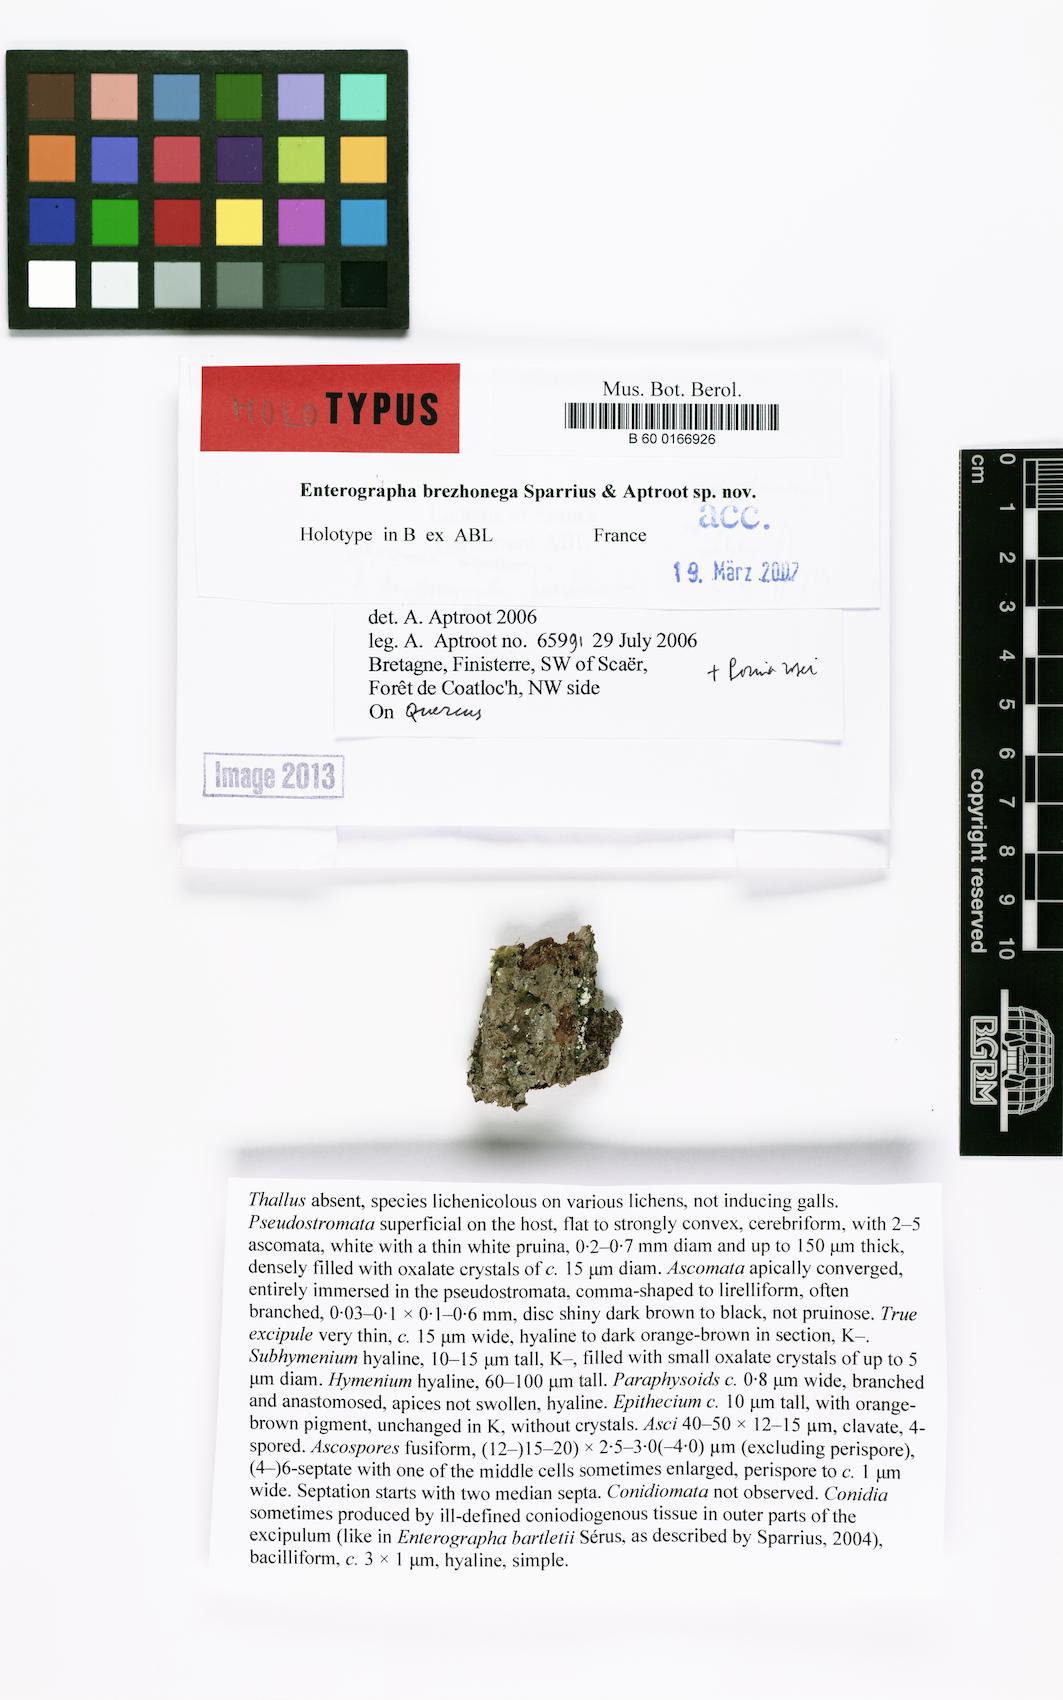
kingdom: Fungi
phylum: Ascomycota
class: Arthoniomycetes
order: Arthoniales
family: Roccellaceae
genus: Enterographa
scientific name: Enterographa brezhonega
